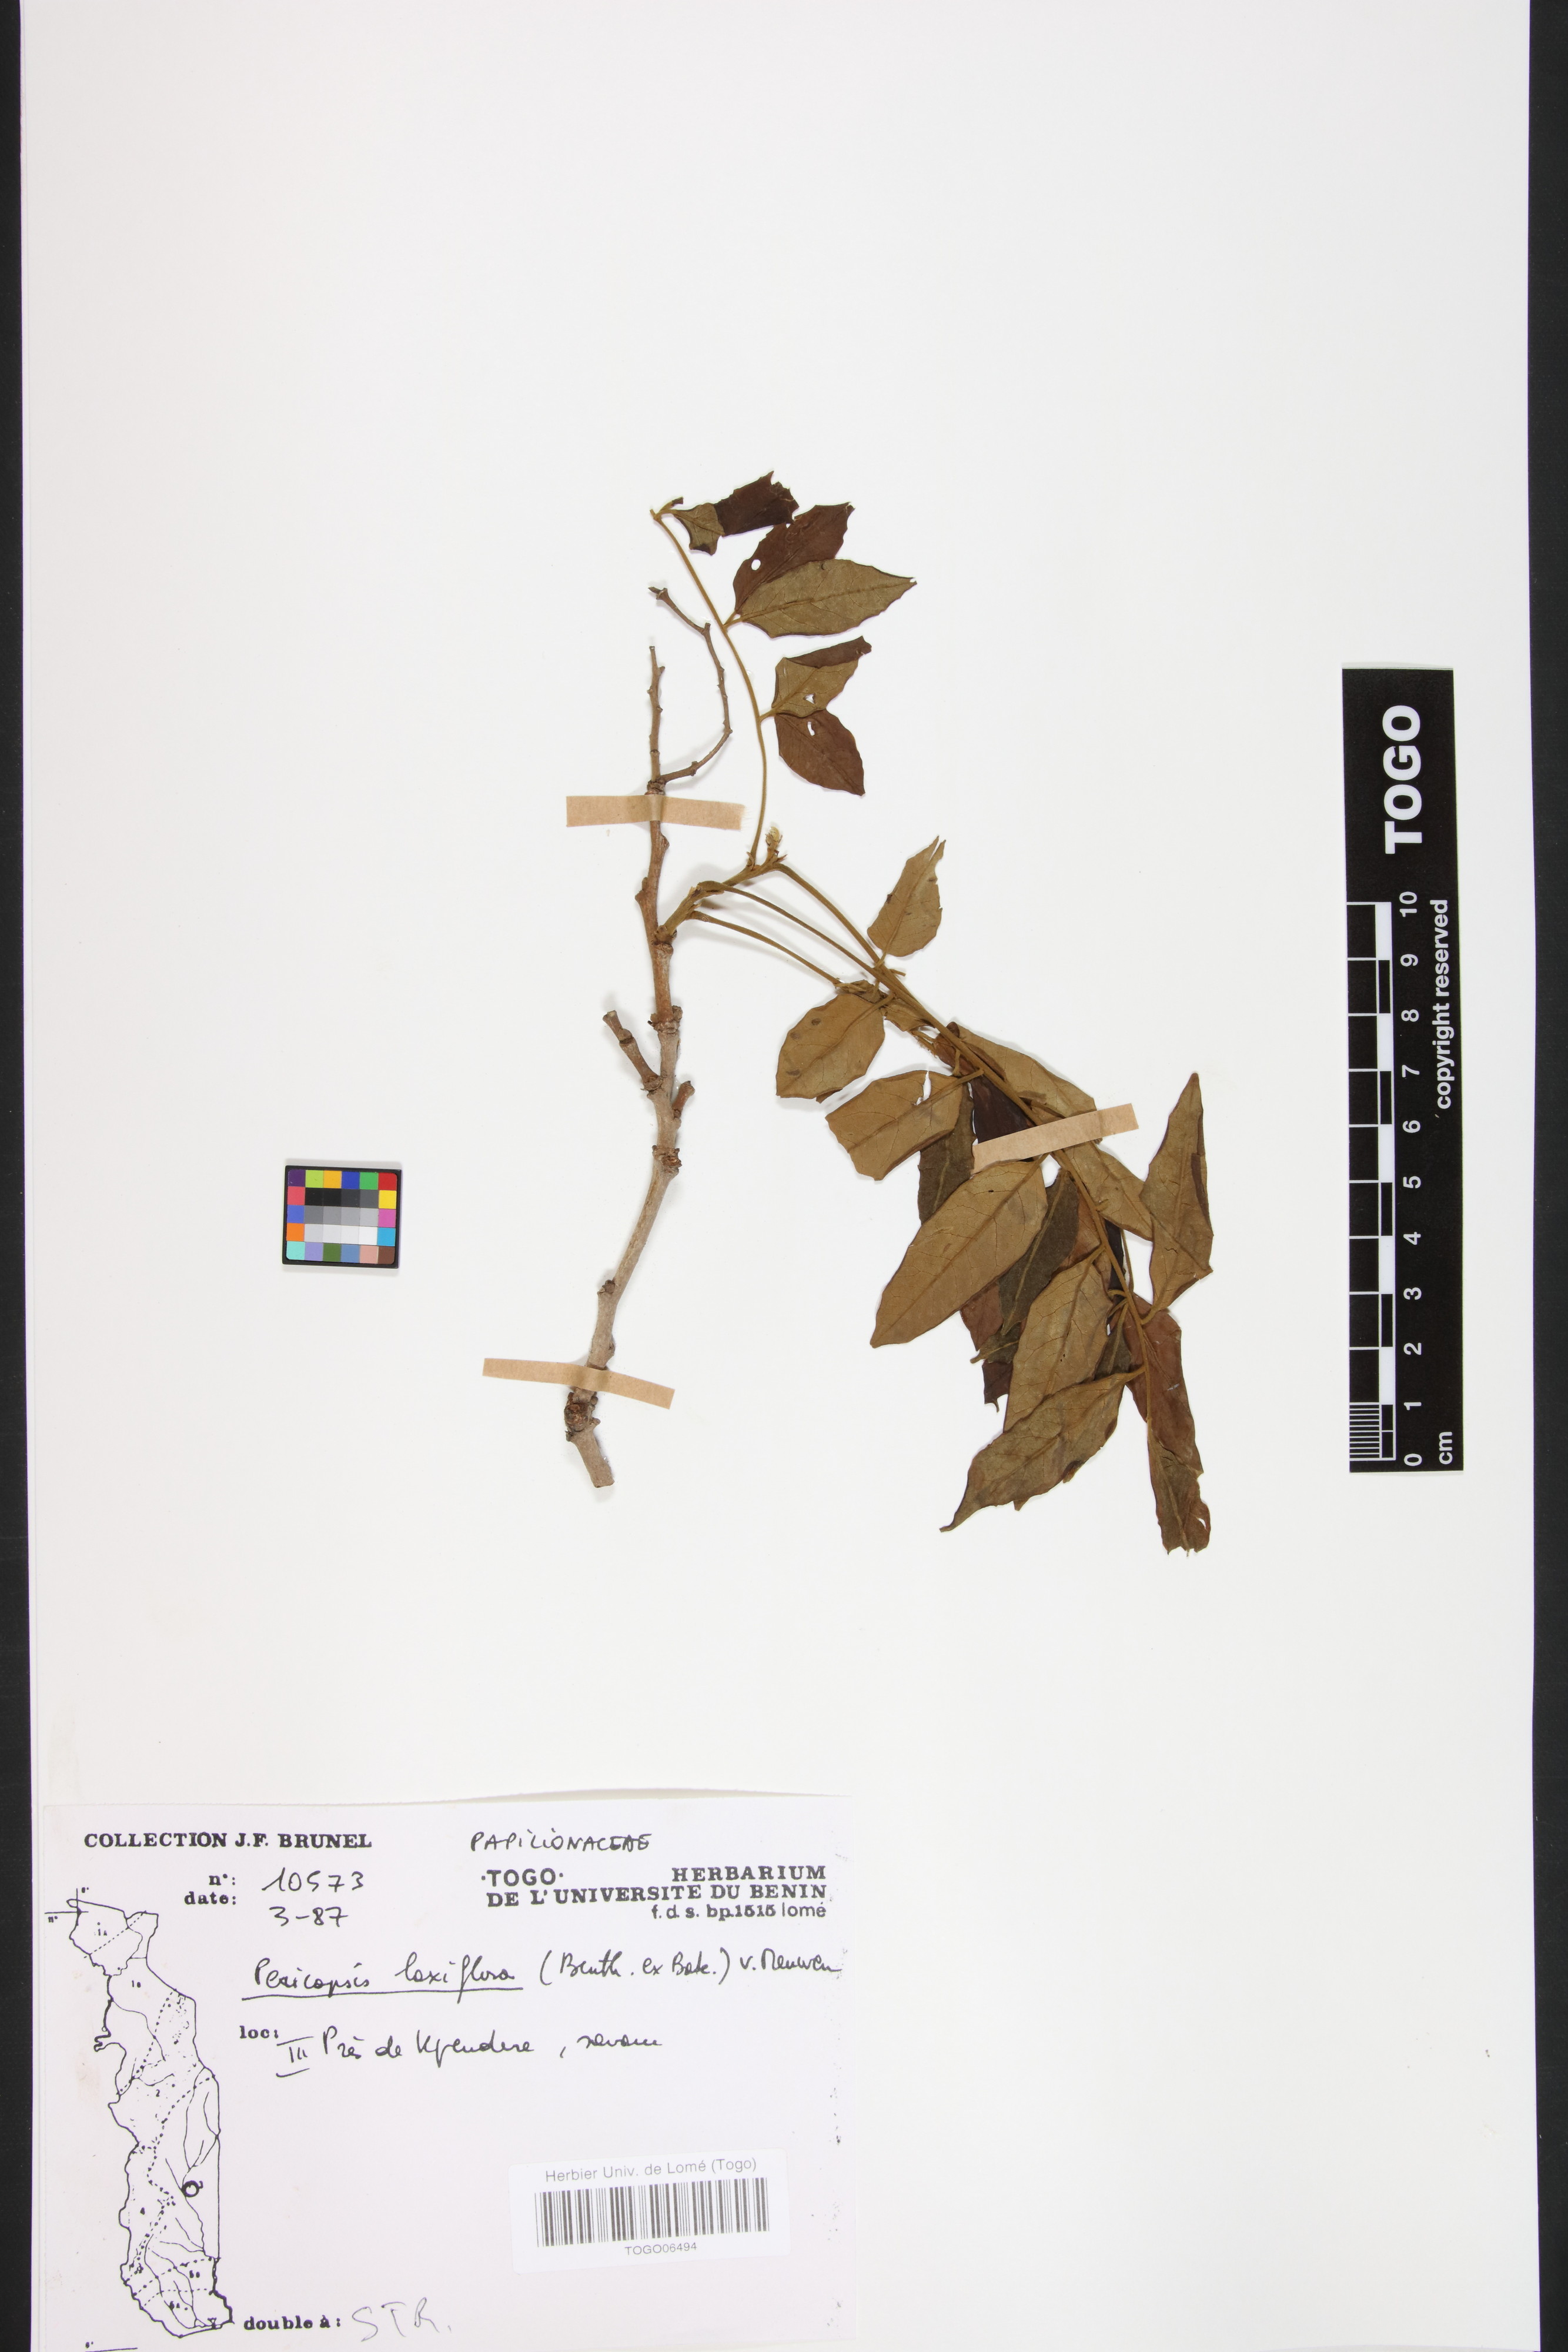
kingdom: Plantae
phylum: Tracheophyta
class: Magnoliopsida
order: Fabales
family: Fabaceae
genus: Pericopsis
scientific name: Pericopsis laxiflora
